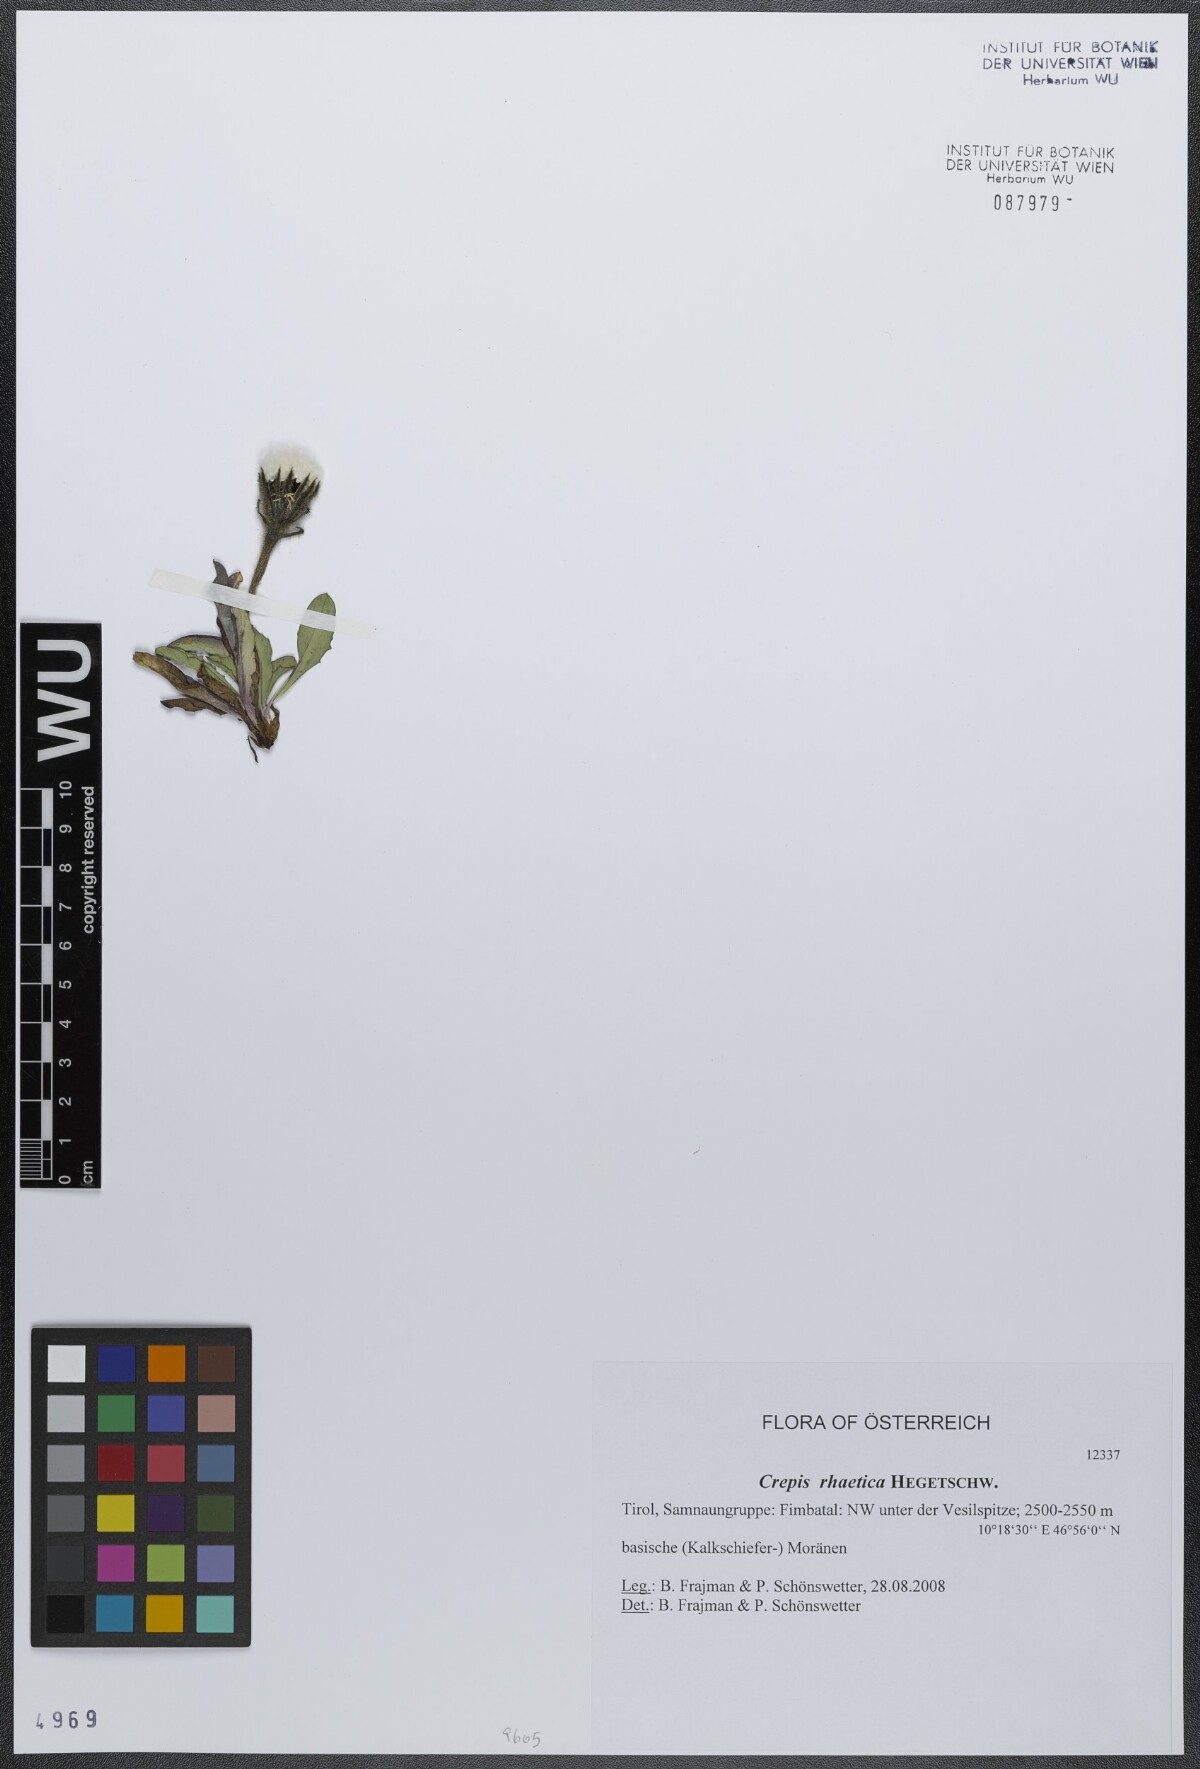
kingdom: Plantae
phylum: Tracheophyta
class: Magnoliopsida
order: Asterales
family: Asteraceae
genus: Crepis
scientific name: Crepis rhaetica
